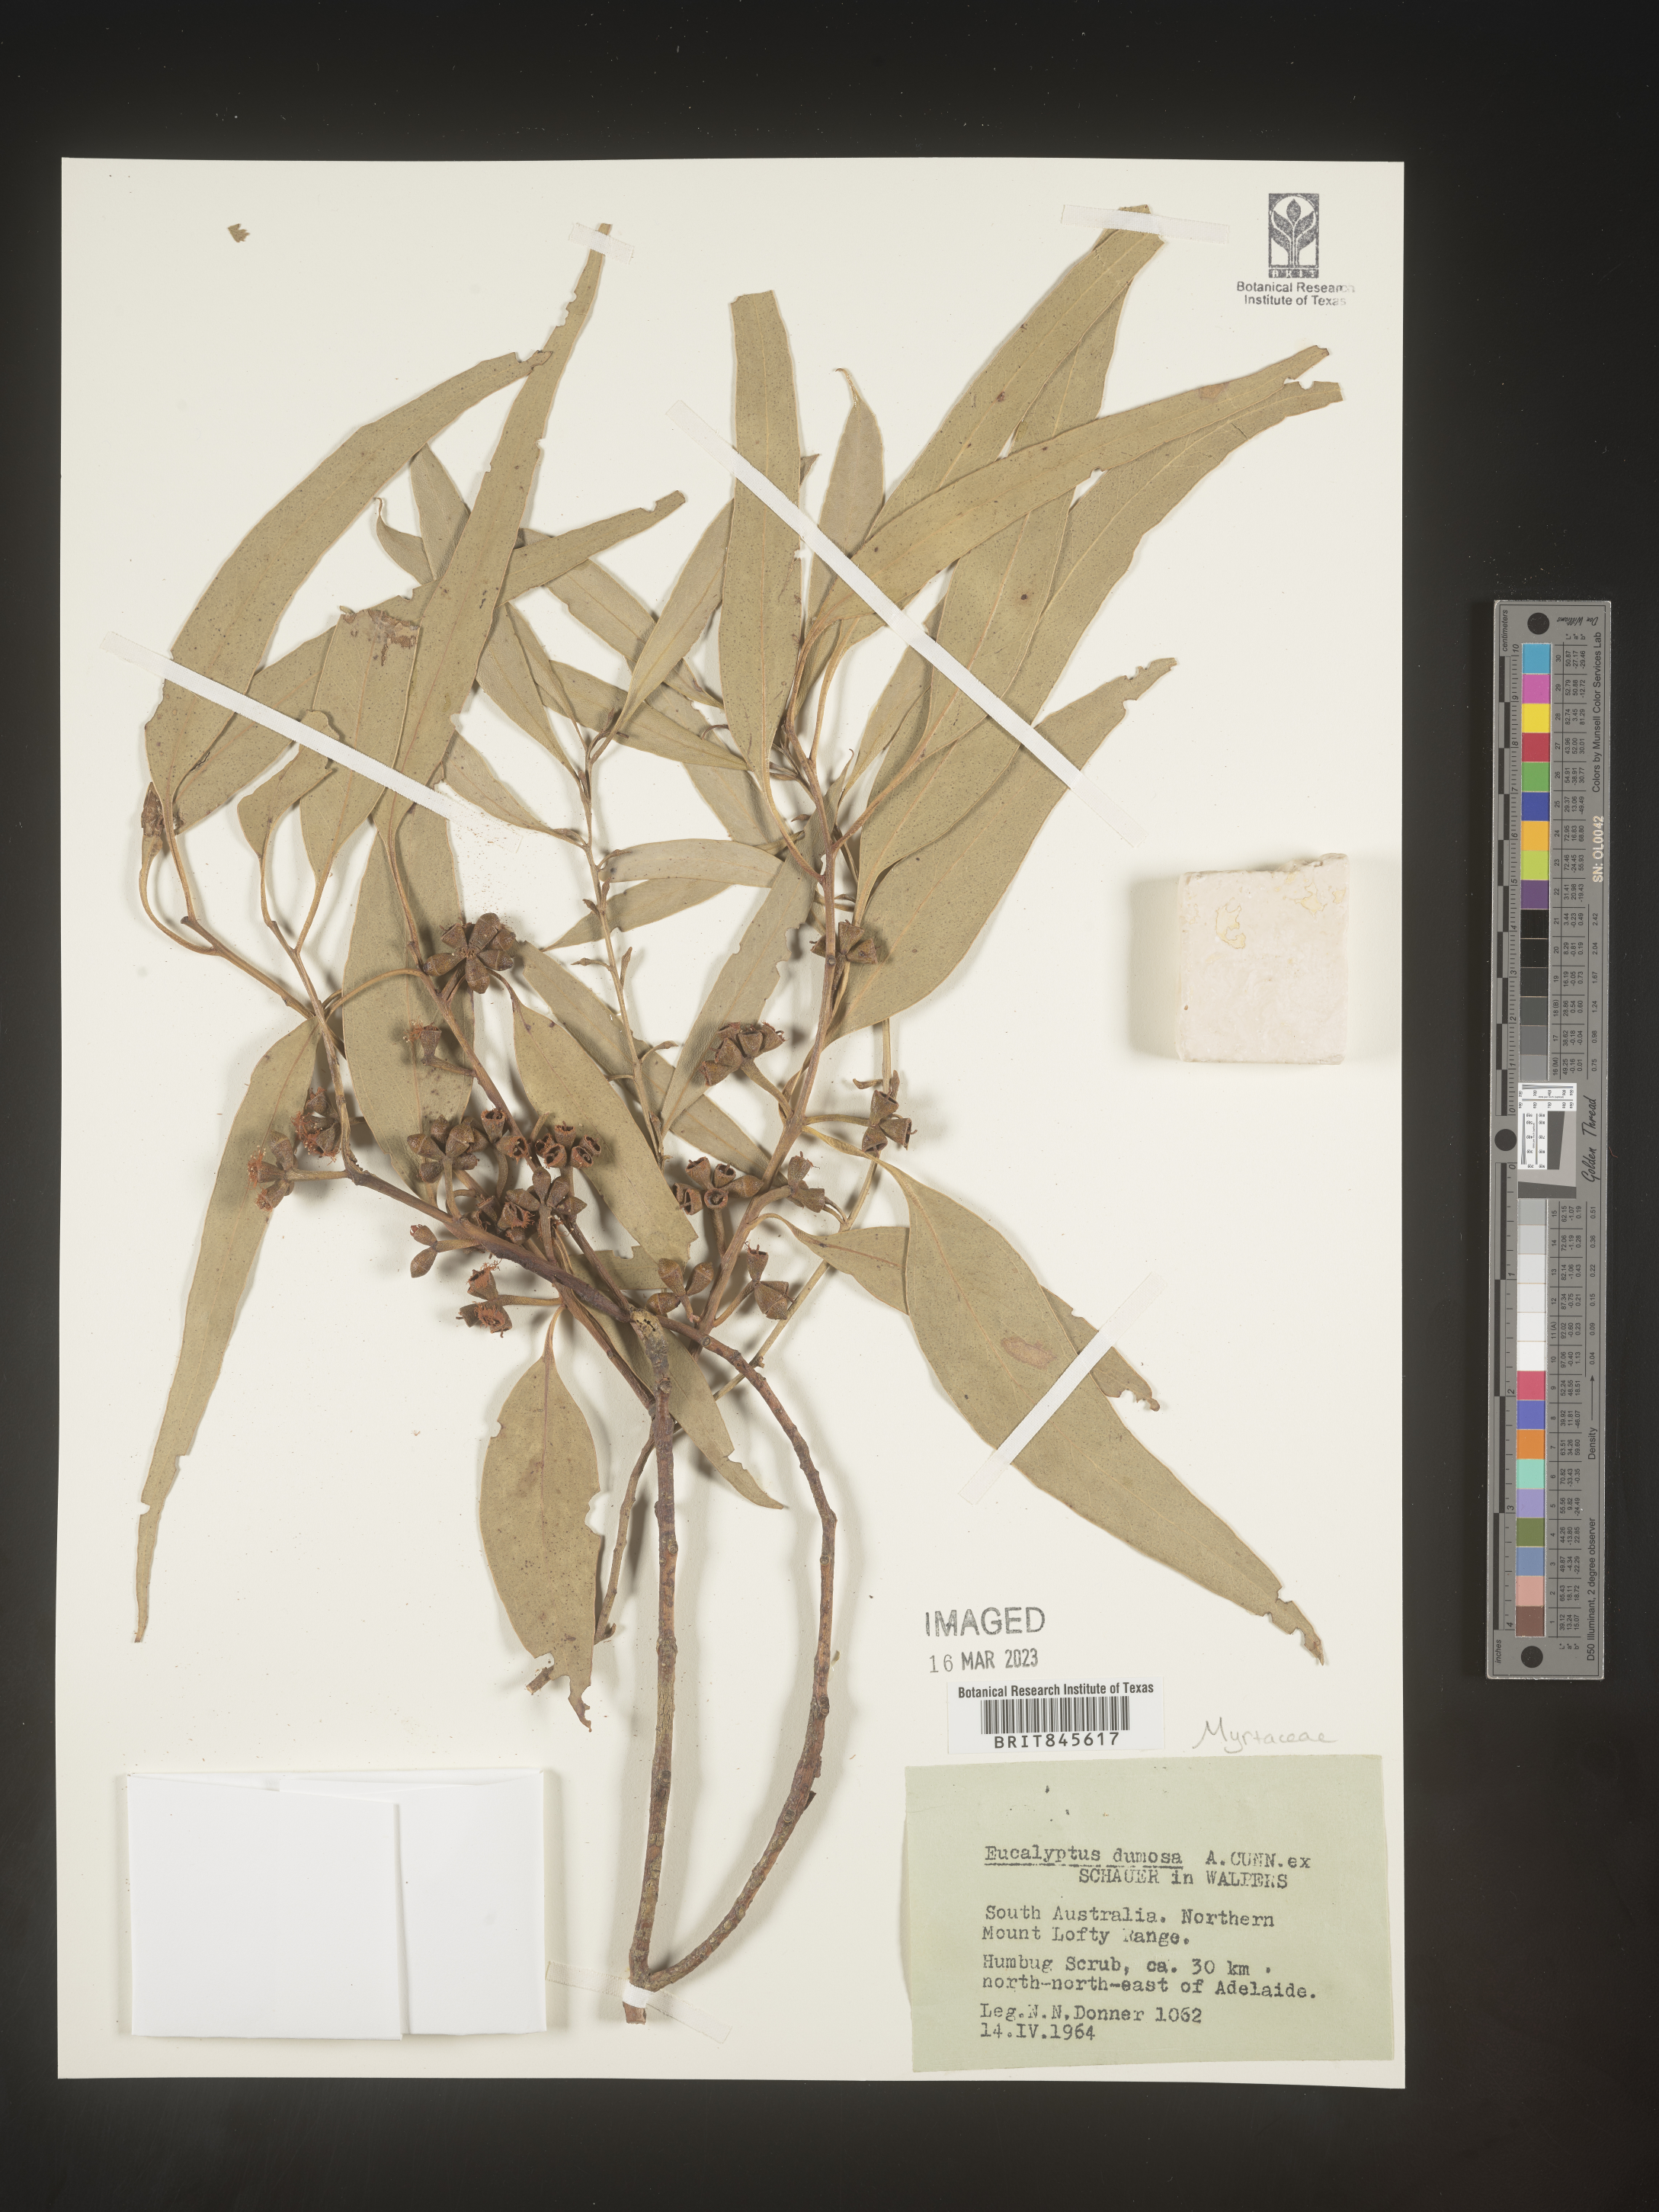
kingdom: Plantae
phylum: Tracheophyta
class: Magnoliopsida
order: Myrtales
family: Myrtaceae
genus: Eucalyptus
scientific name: Eucalyptus
